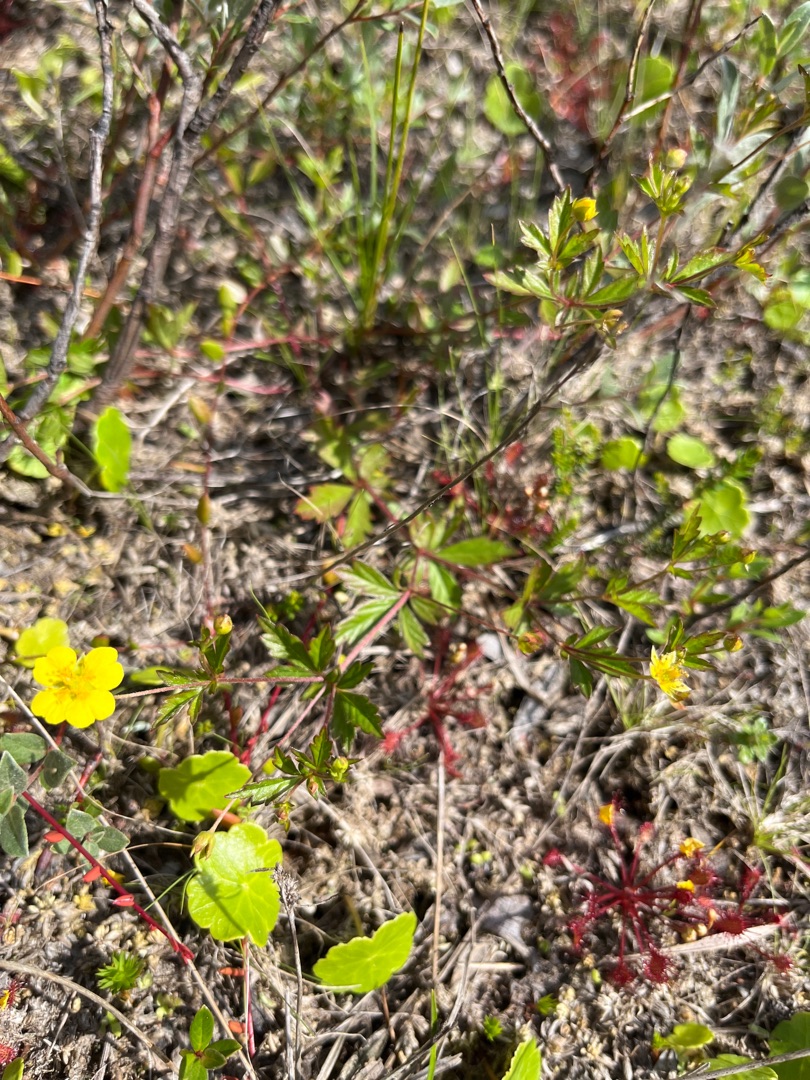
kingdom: Plantae
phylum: Tracheophyta
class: Magnoliopsida
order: Rosales
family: Rosaceae
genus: Potentilla
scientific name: Potentilla erecta
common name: Tormentil
